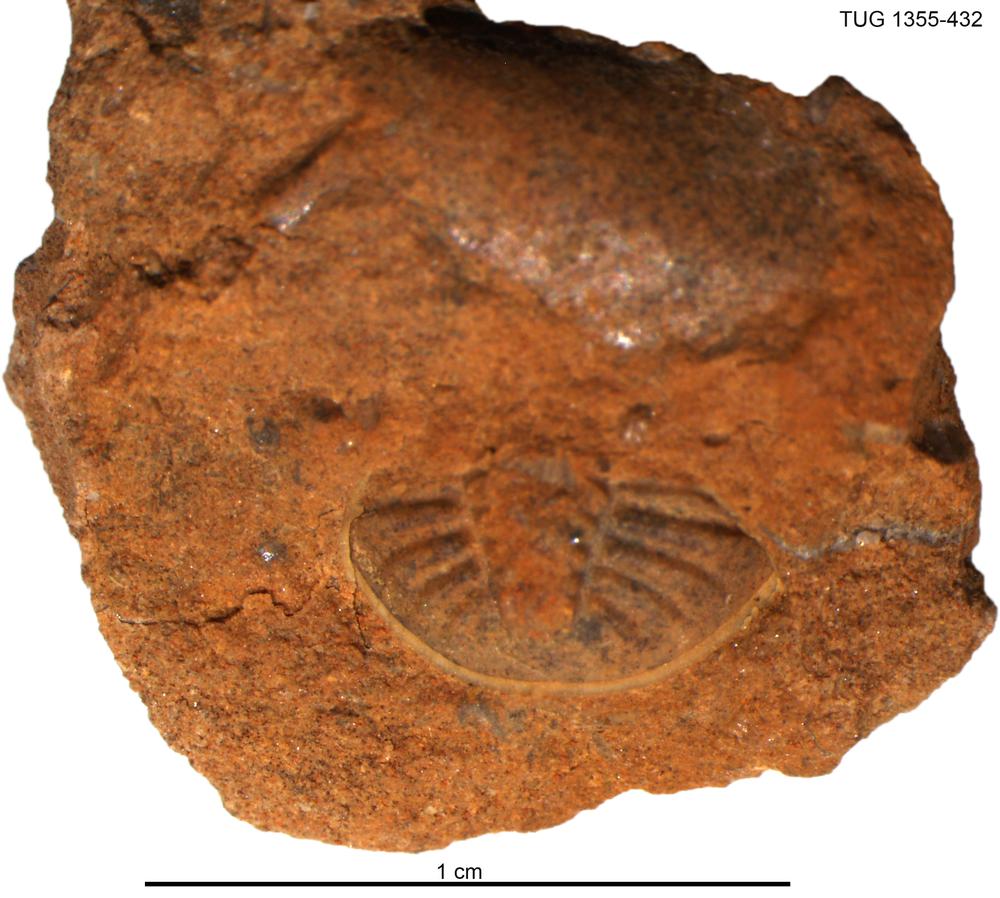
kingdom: Animalia
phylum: Arthropoda
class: Trilobita
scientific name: Trilobita
